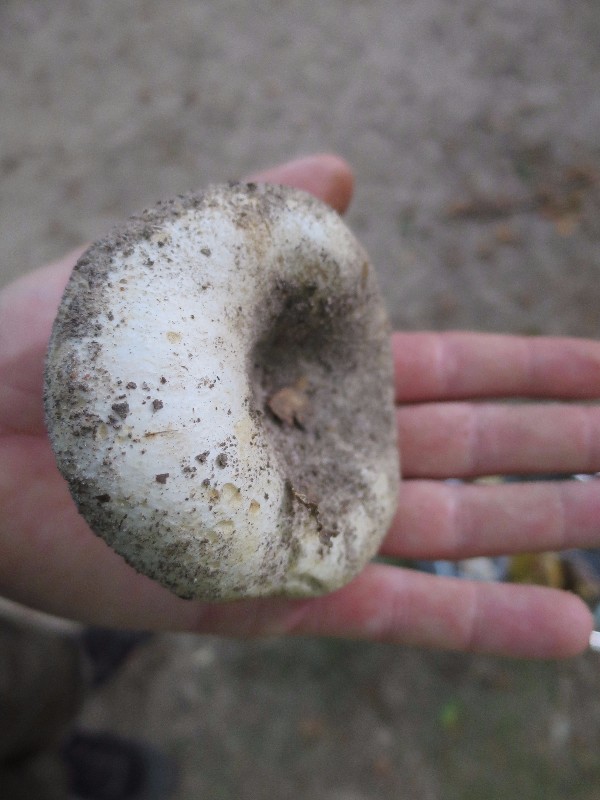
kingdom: Fungi
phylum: Basidiomycota
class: Agaricomycetes
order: Russulales
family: Russulaceae
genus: Russula
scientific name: Russula chloroides
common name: grønhalset tragt-skørhat
